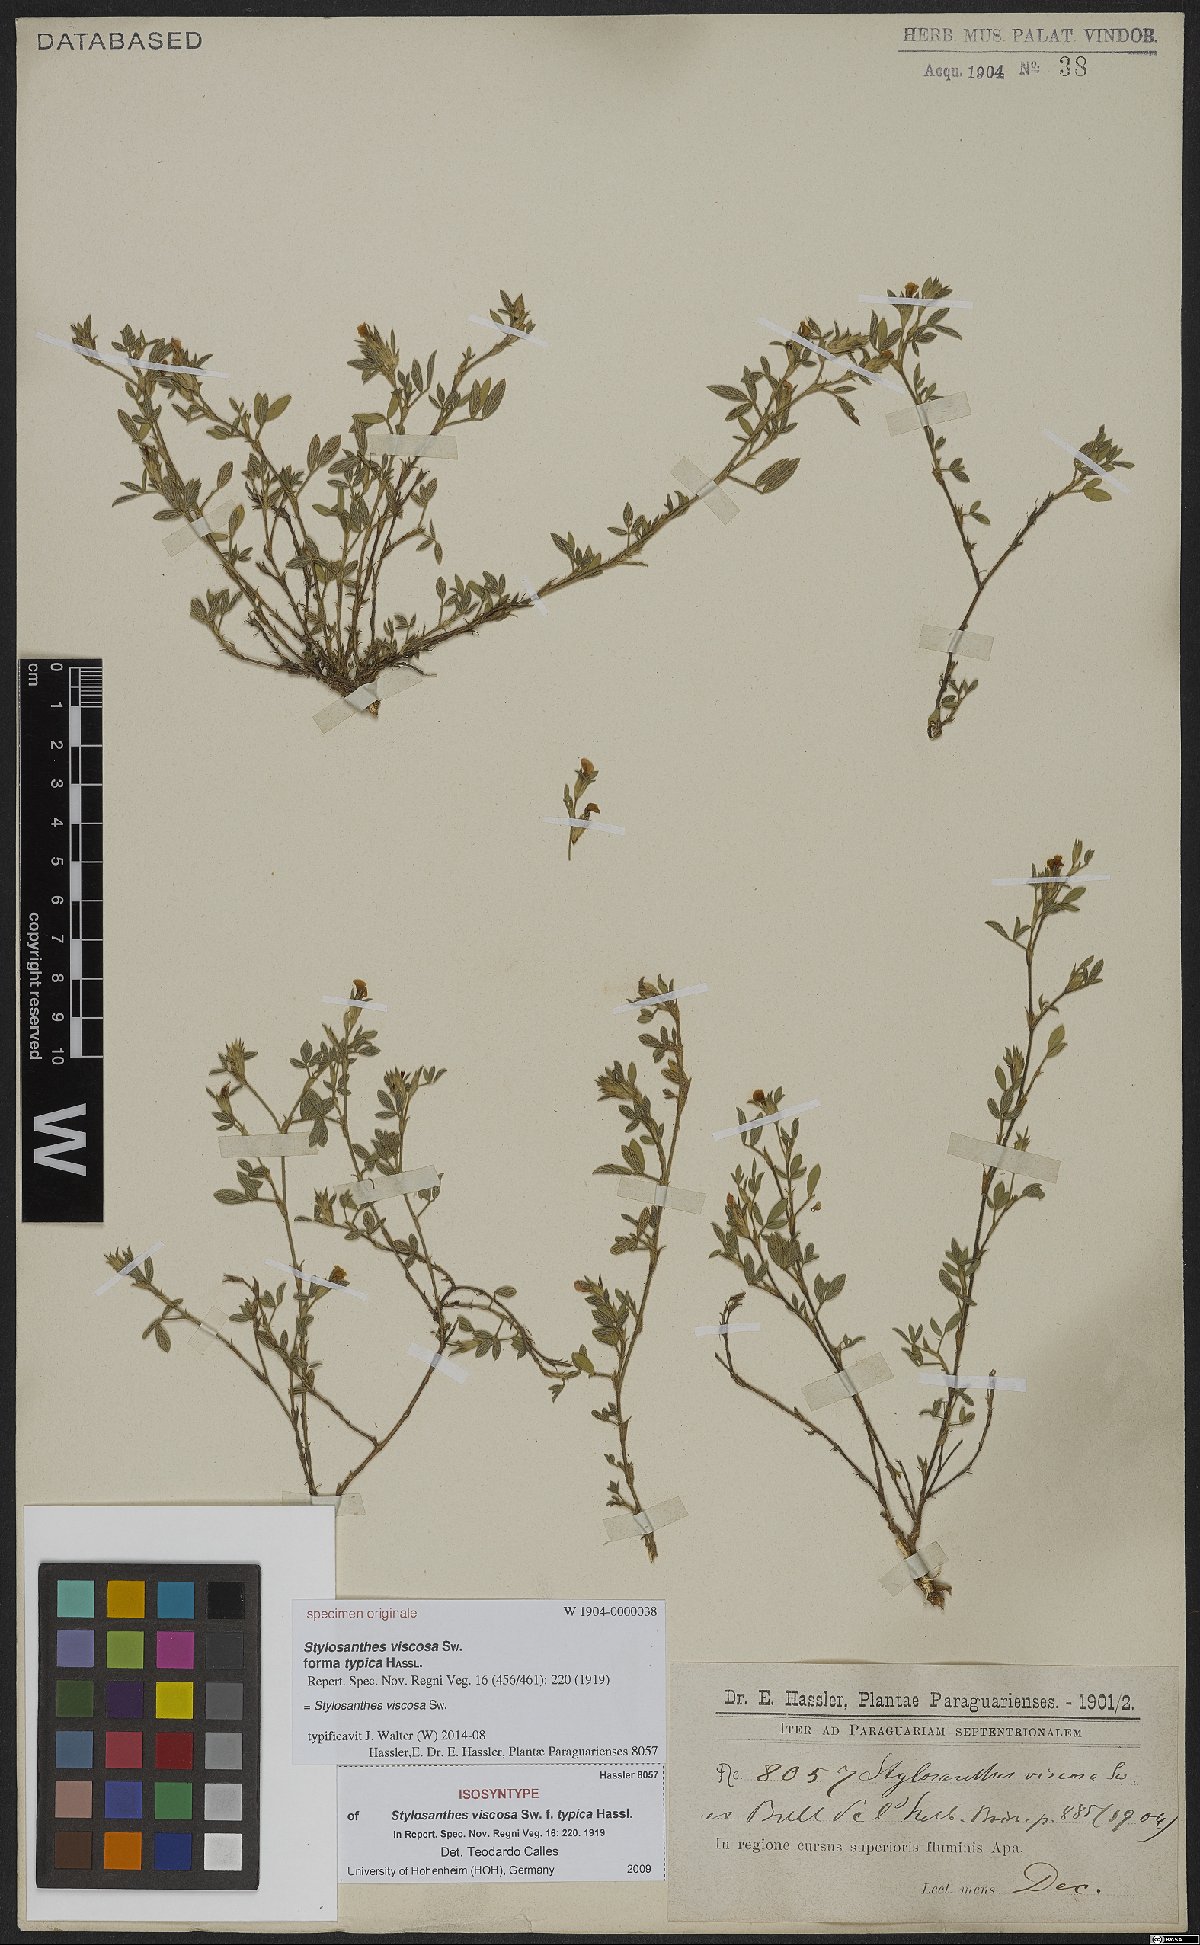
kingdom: Plantae
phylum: Tracheophyta
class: Magnoliopsida
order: Fabales
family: Fabaceae
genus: Stylosanthes
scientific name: Stylosanthes viscosa
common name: Viscid pencil-flower
